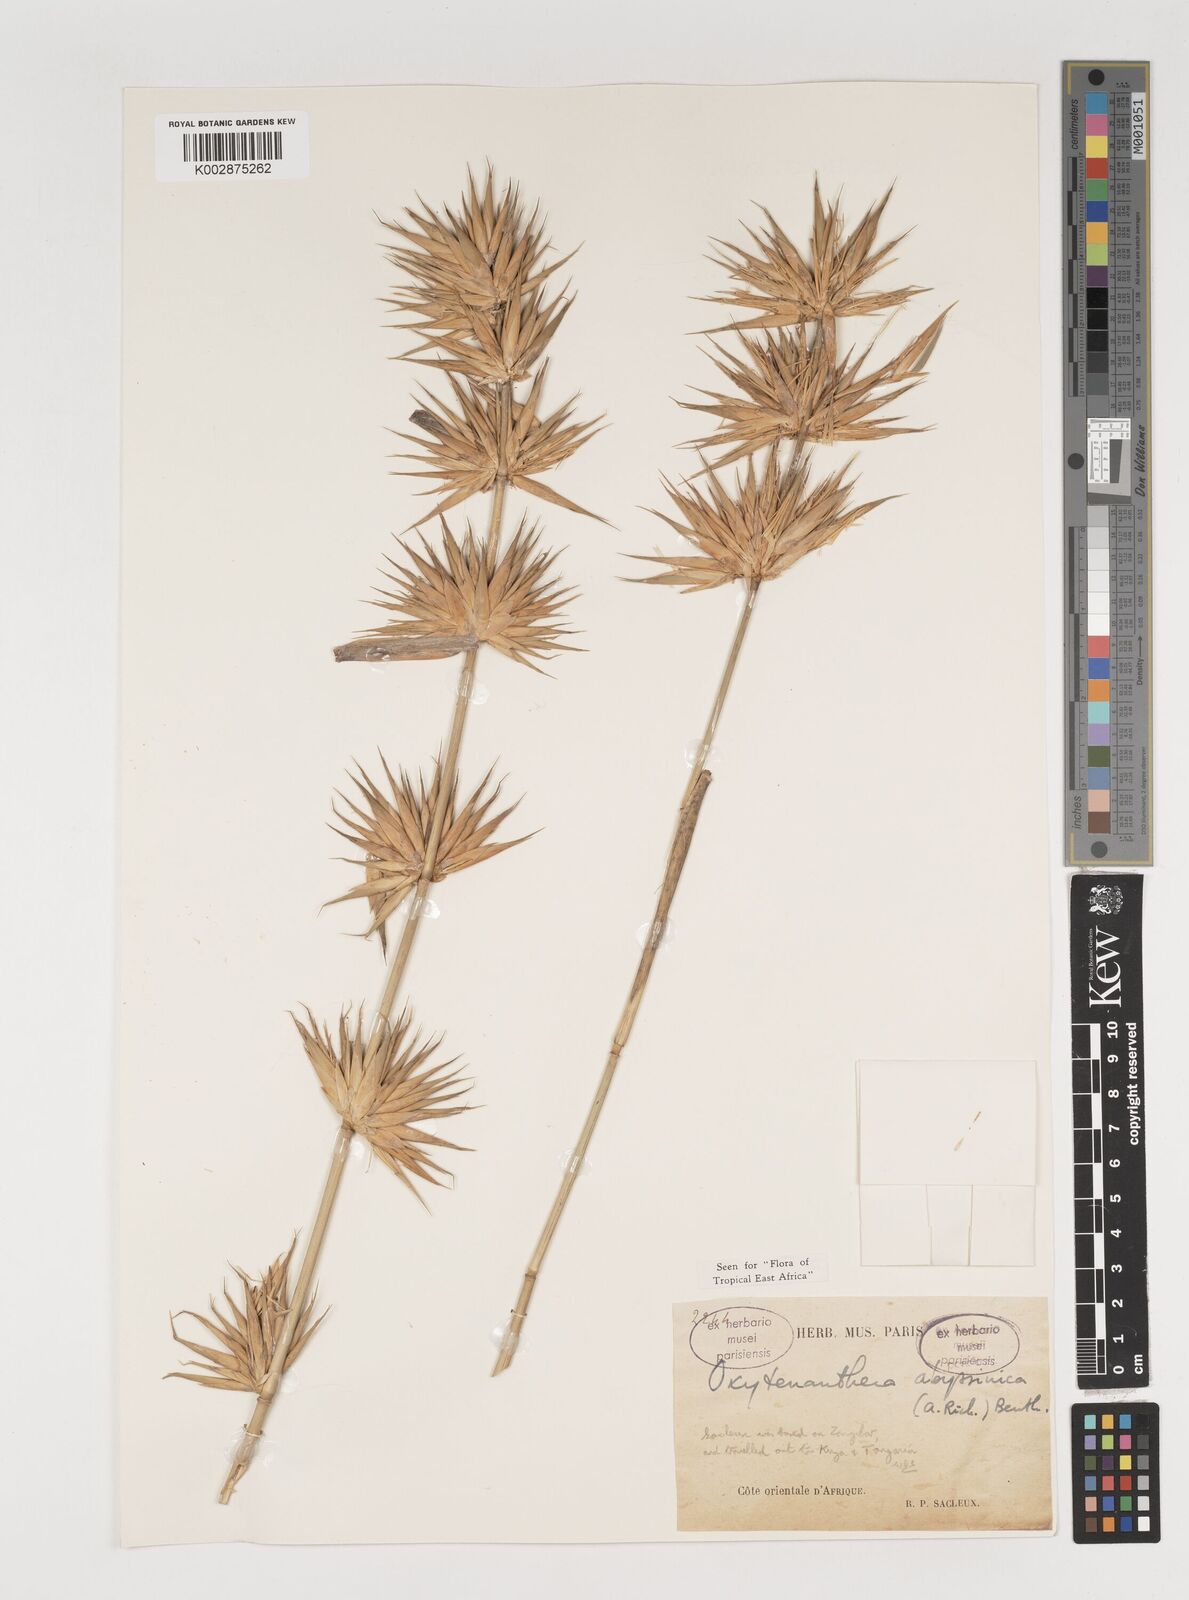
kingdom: Plantae
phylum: Tracheophyta
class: Liliopsida
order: Poales
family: Poaceae
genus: Oxytenanthera
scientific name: Oxytenanthera abyssinica
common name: Wine bamboo
